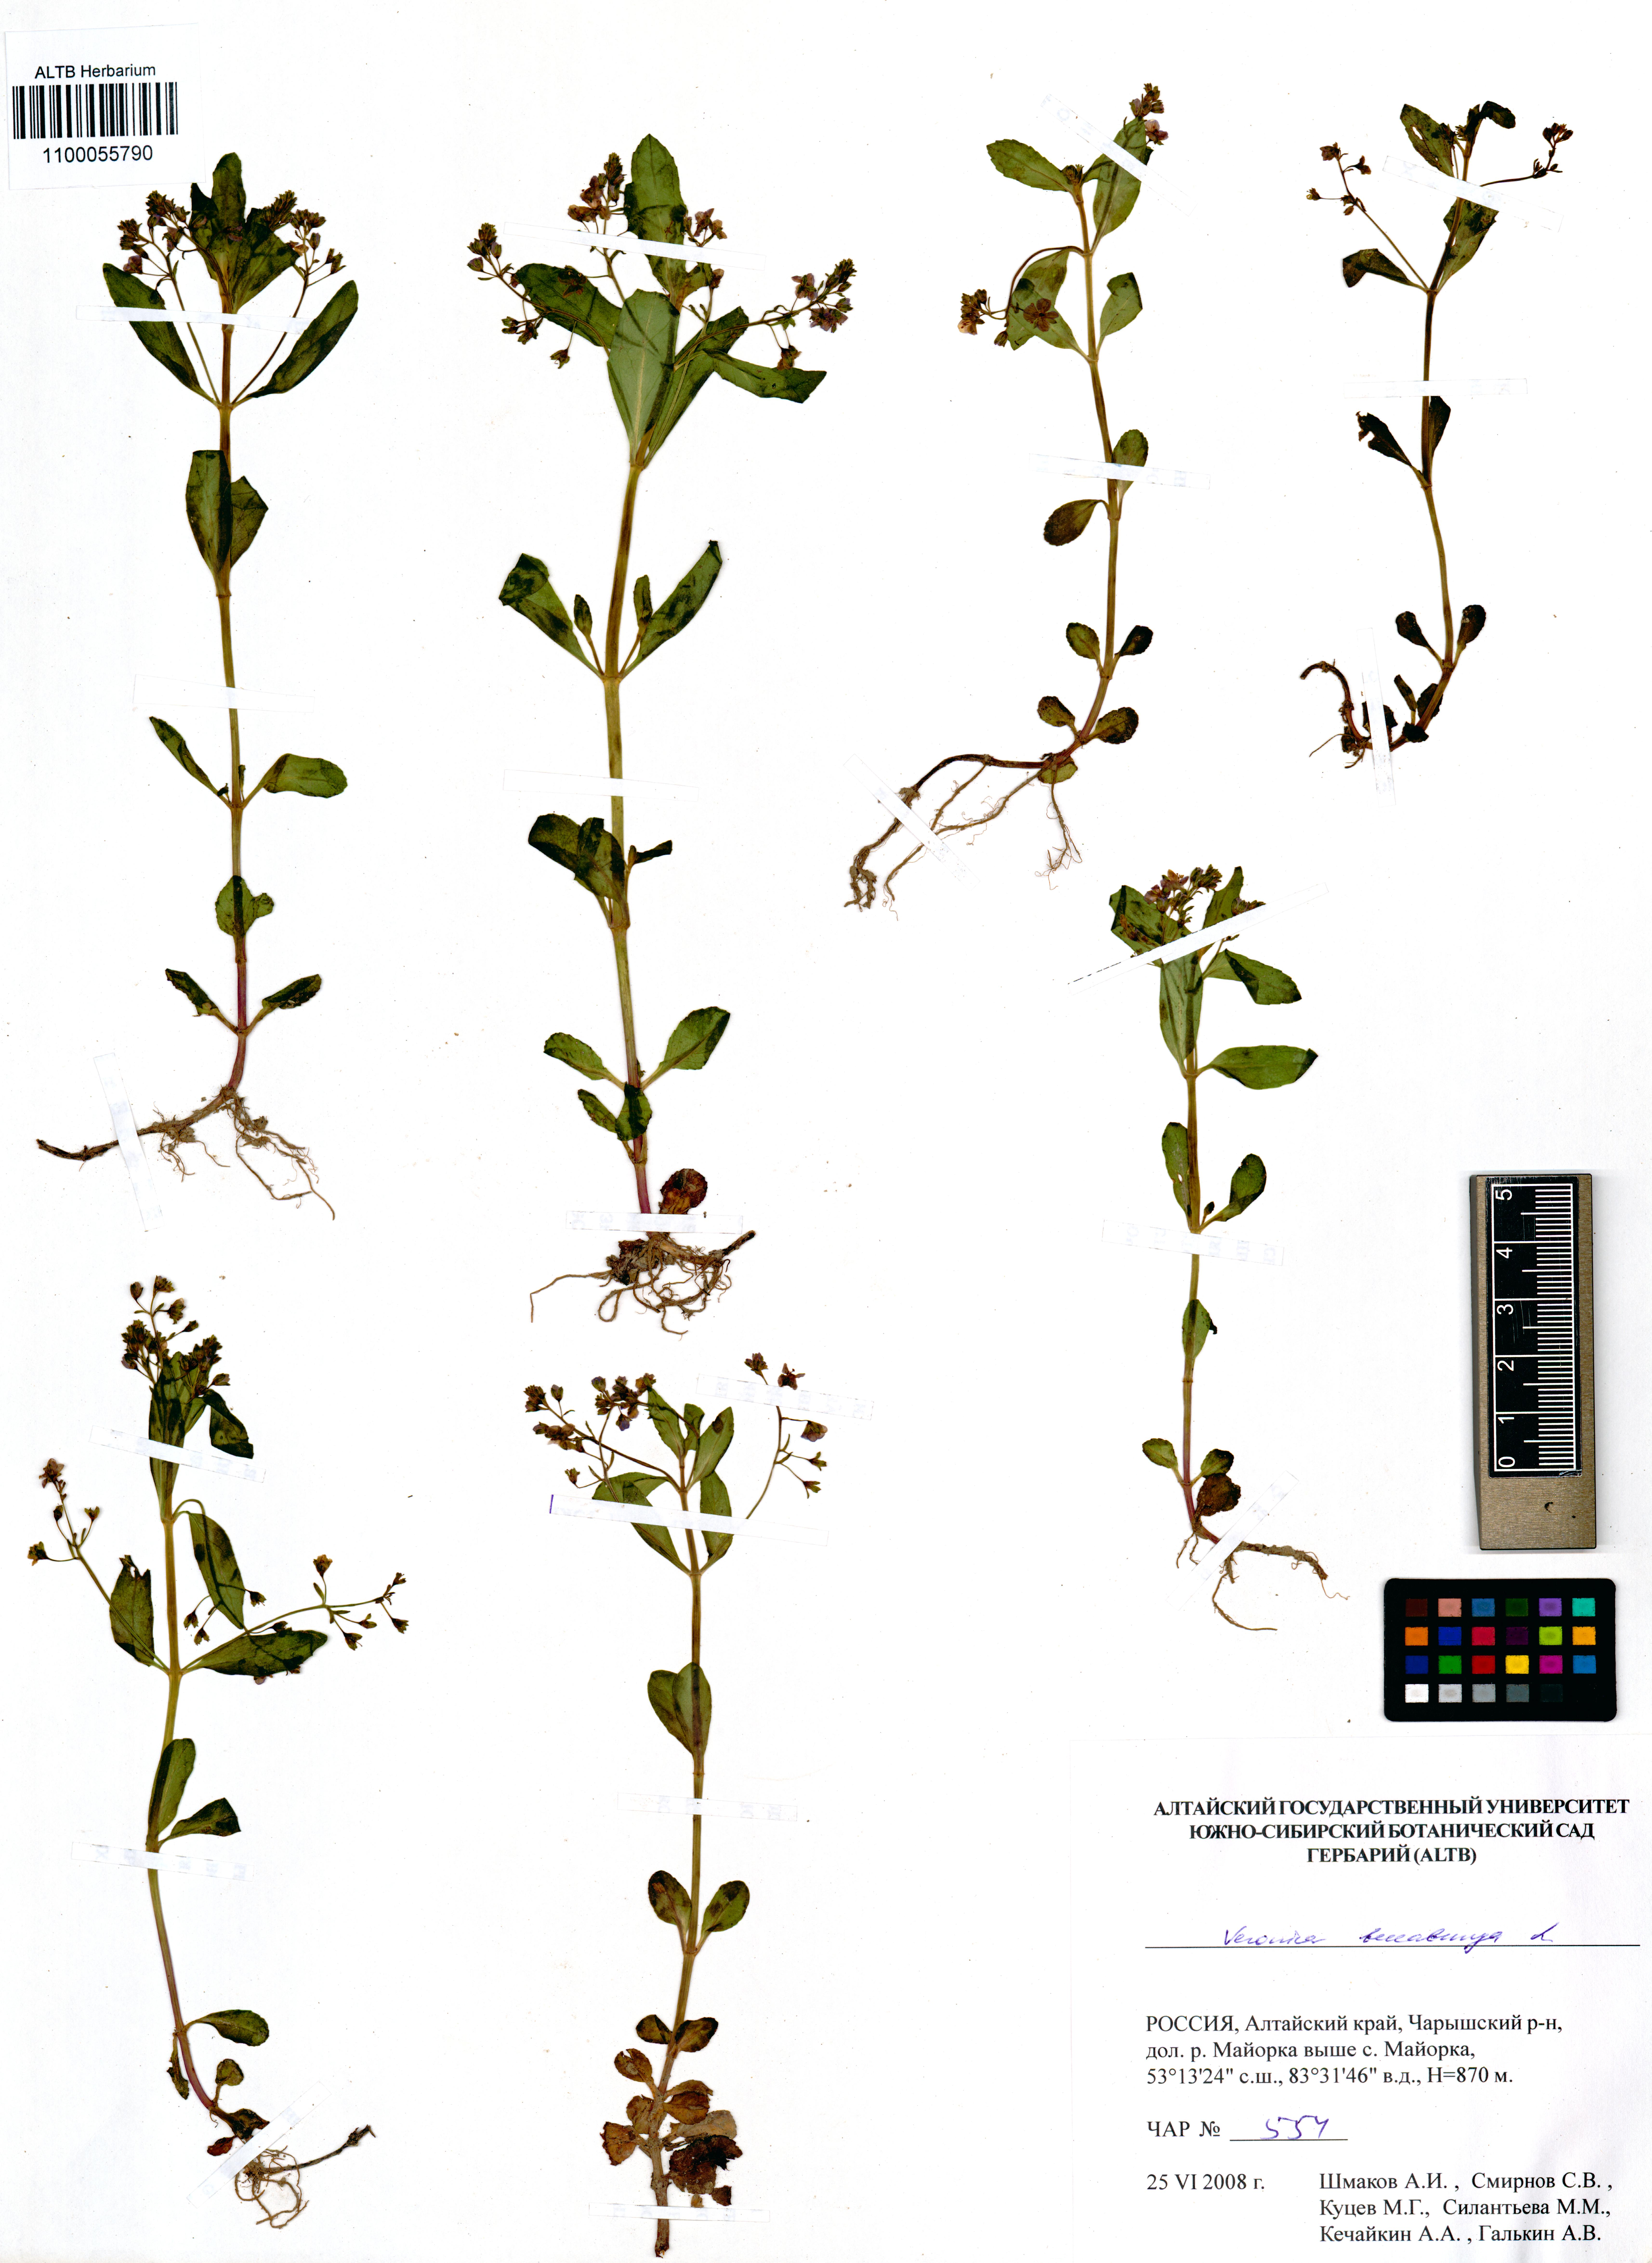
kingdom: Plantae
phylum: Tracheophyta
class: Magnoliopsida
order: Lamiales
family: Plantaginaceae
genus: Veronica
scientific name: Veronica beccabunga
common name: Brooklime
